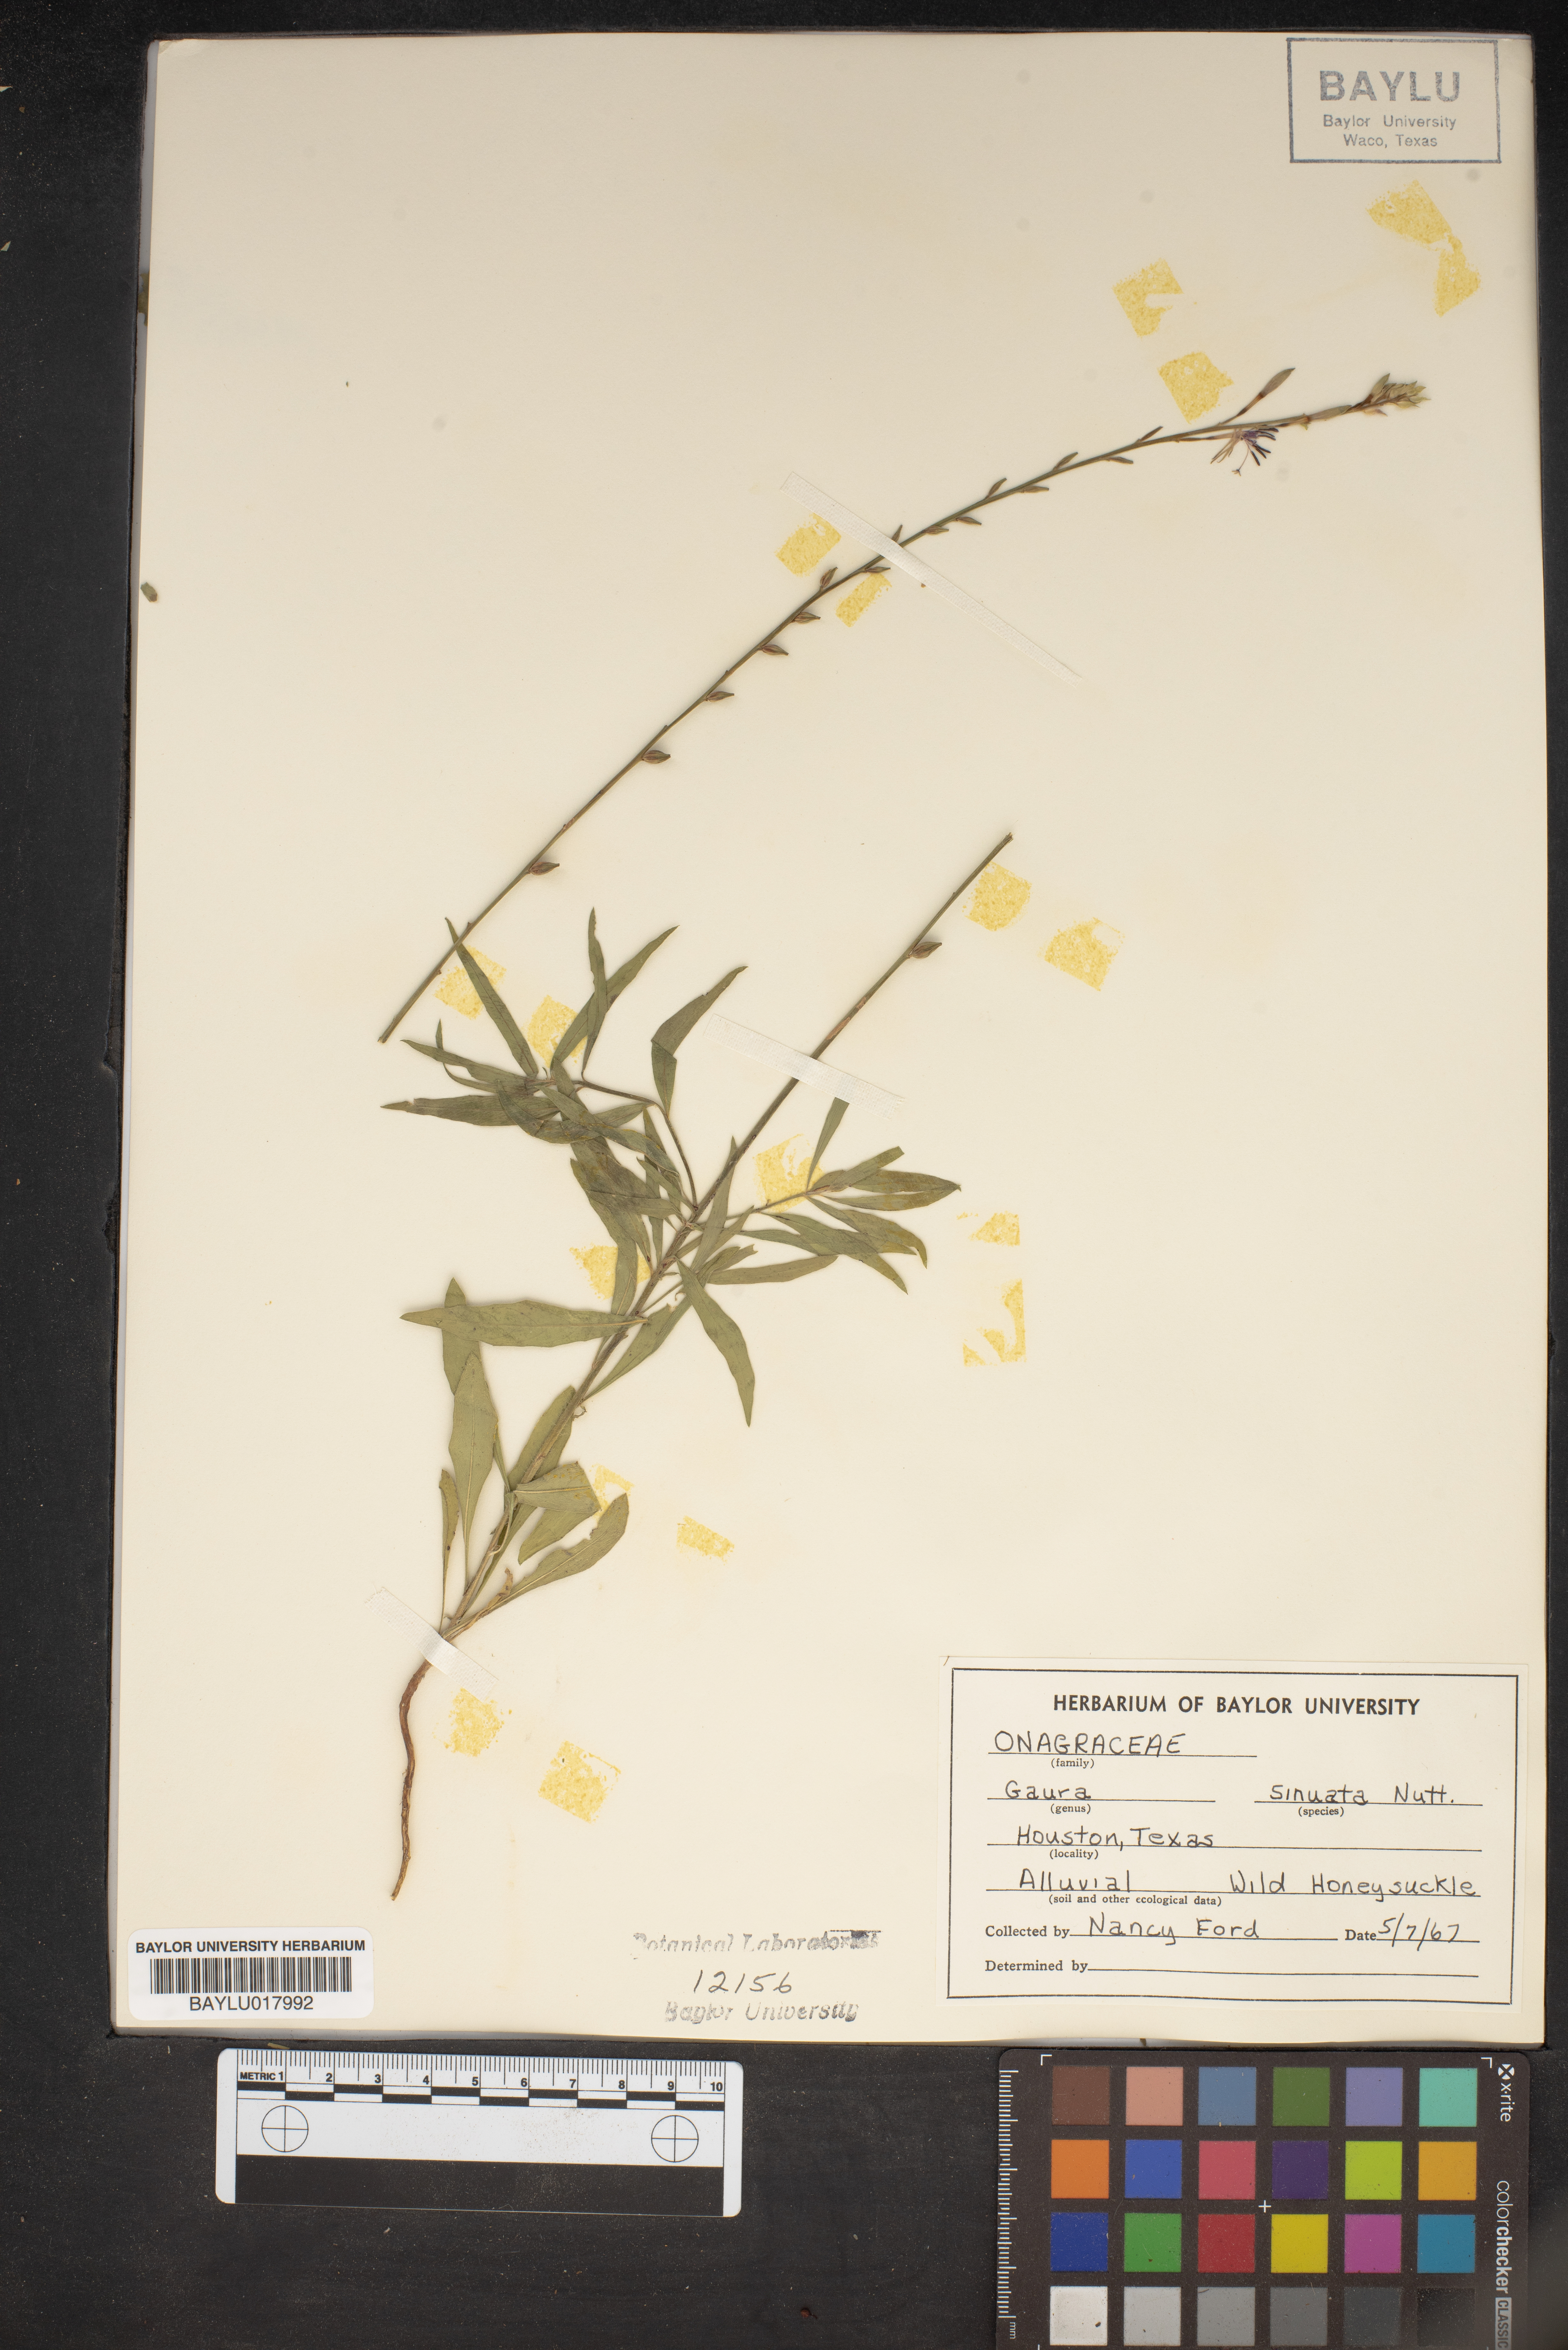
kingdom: Plantae
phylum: Tracheophyta
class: Magnoliopsida
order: Myrtales
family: Onagraceae
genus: Oenothera
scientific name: Oenothera sinuosa
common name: Wavyleaf beeblossom
